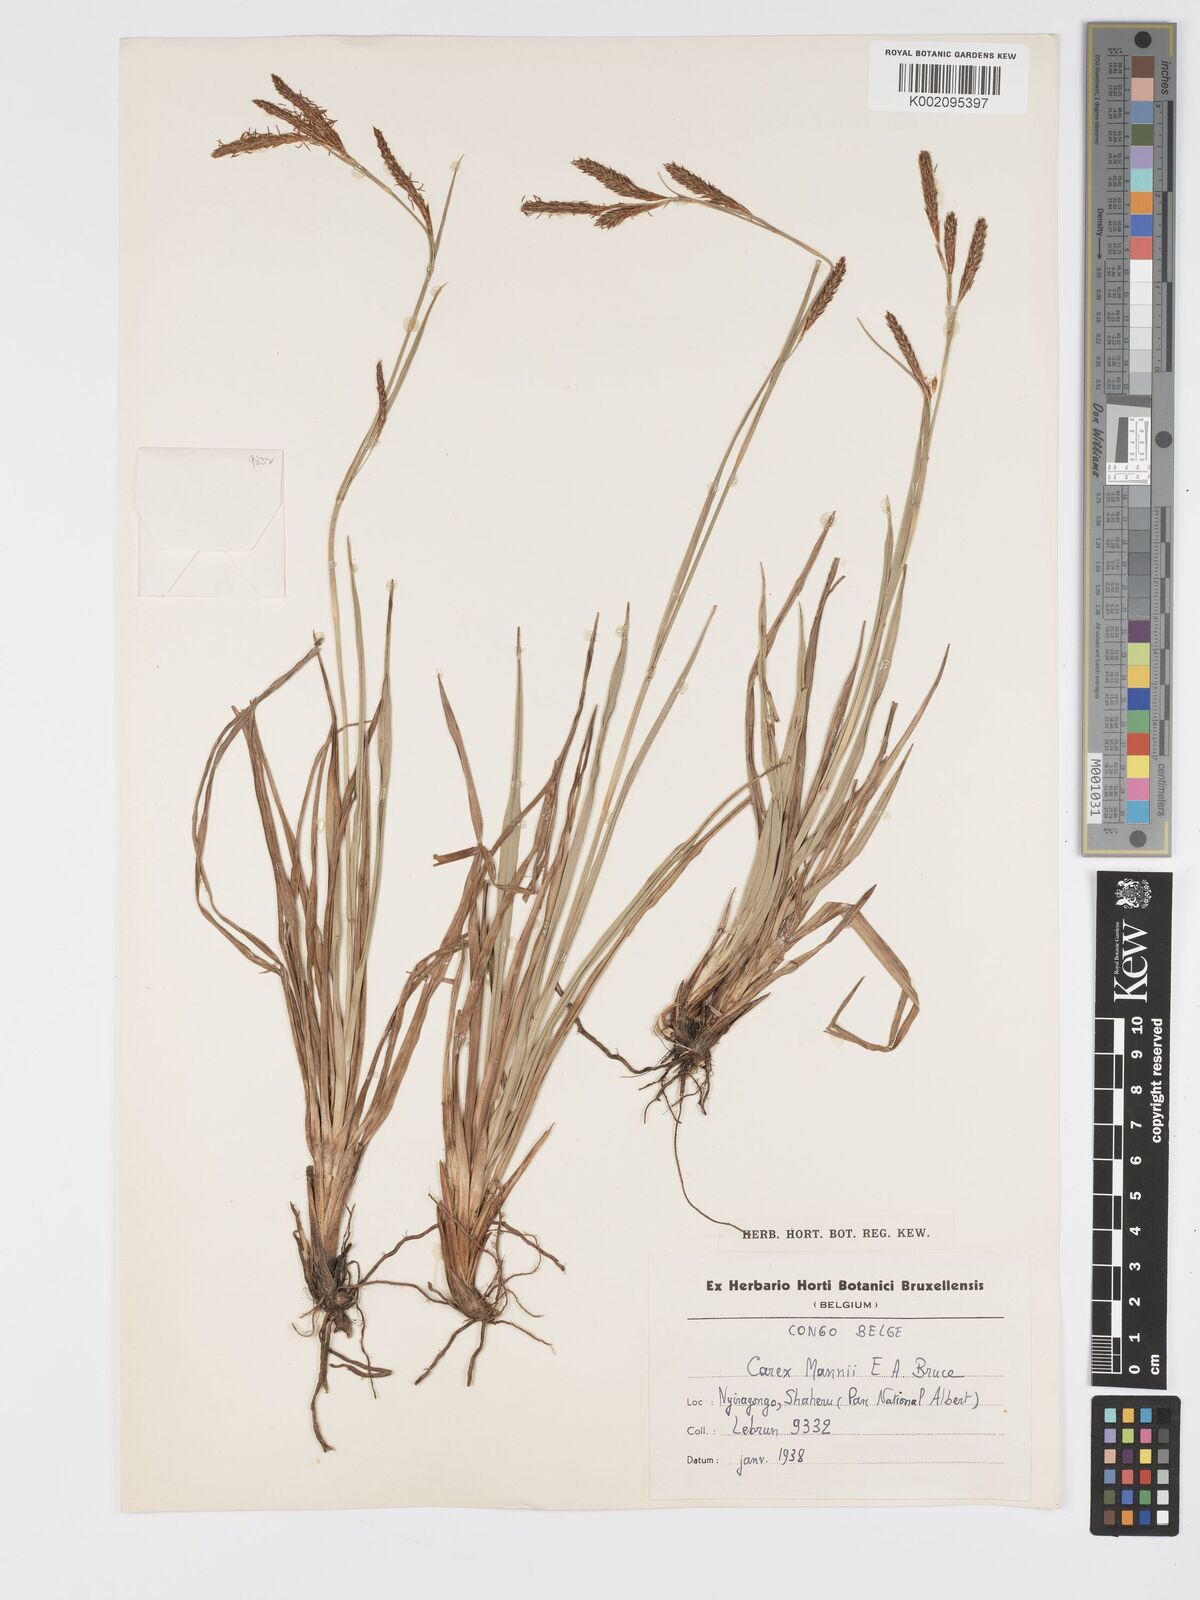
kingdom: Plantae
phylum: Tracheophyta
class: Liliopsida
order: Poales
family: Cyperaceae
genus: Carex
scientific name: Carex petitiana
